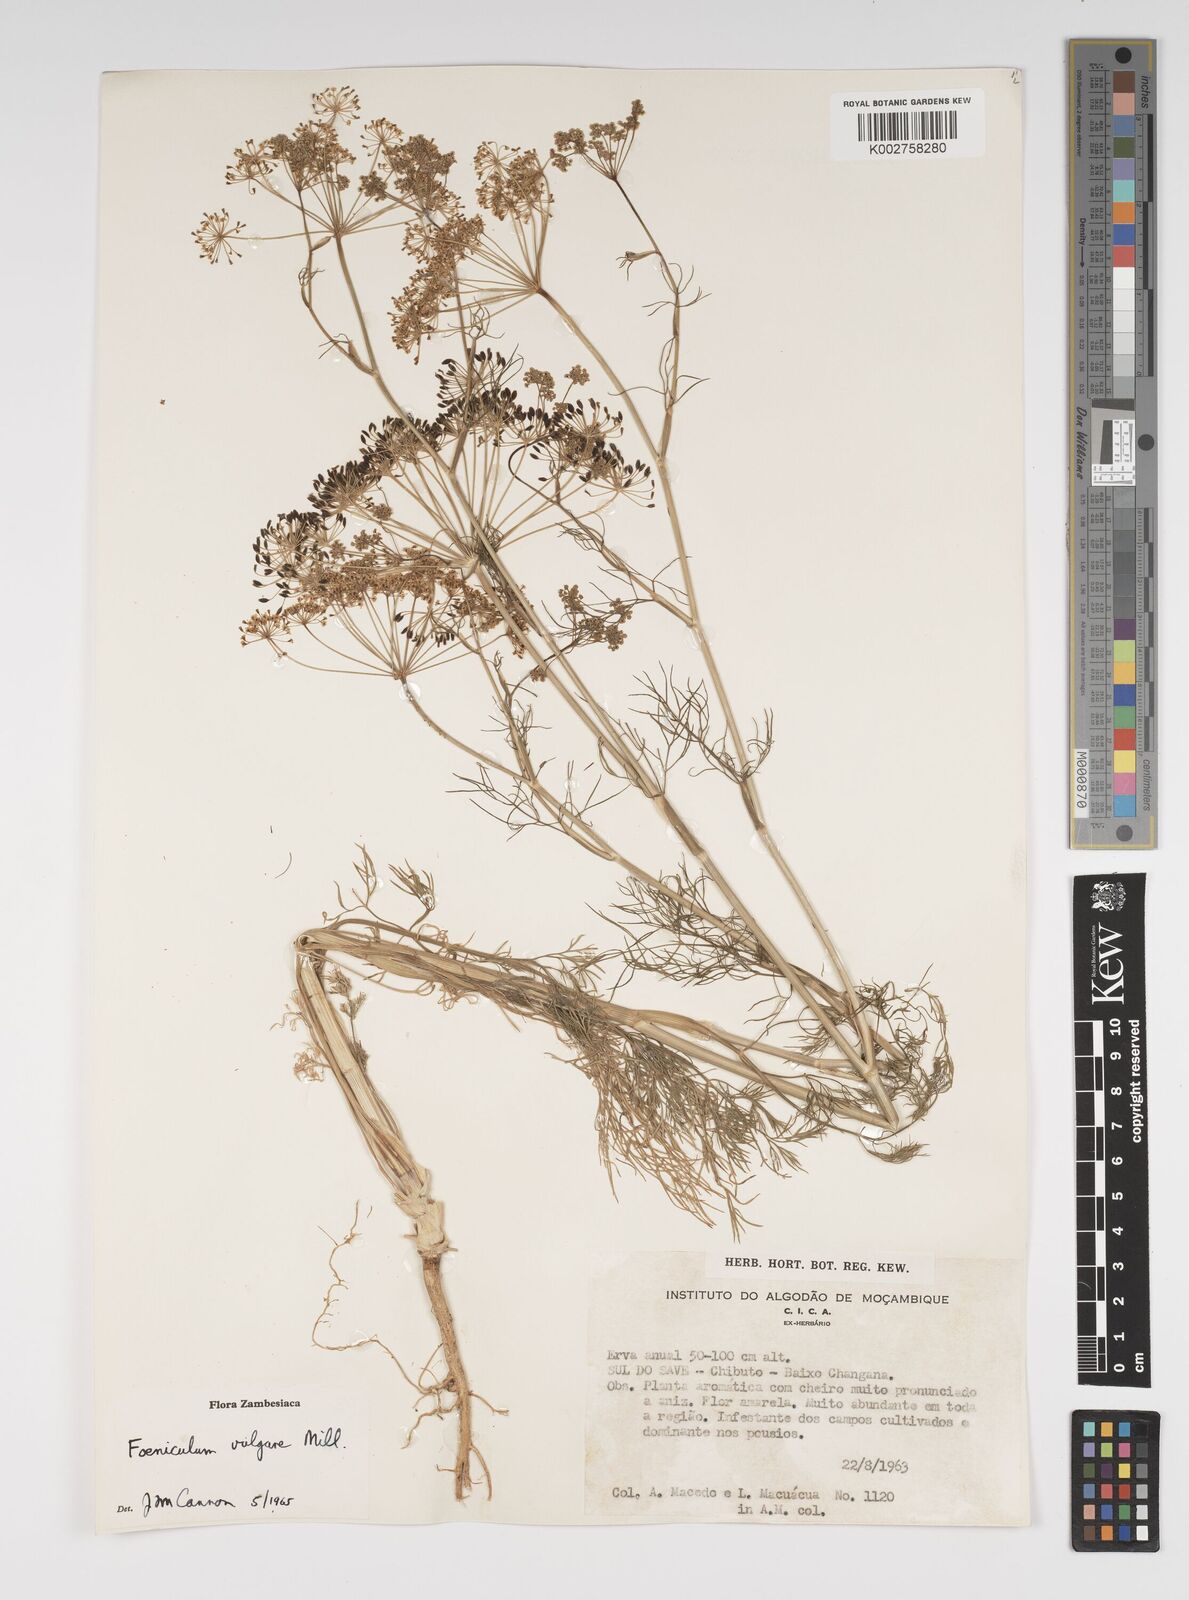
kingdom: Plantae
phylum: Tracheophyta
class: Magnoliopsida
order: Apiales
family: Apiaceae
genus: Foeniculum
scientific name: Foeniculum vulgare
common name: Fennel
